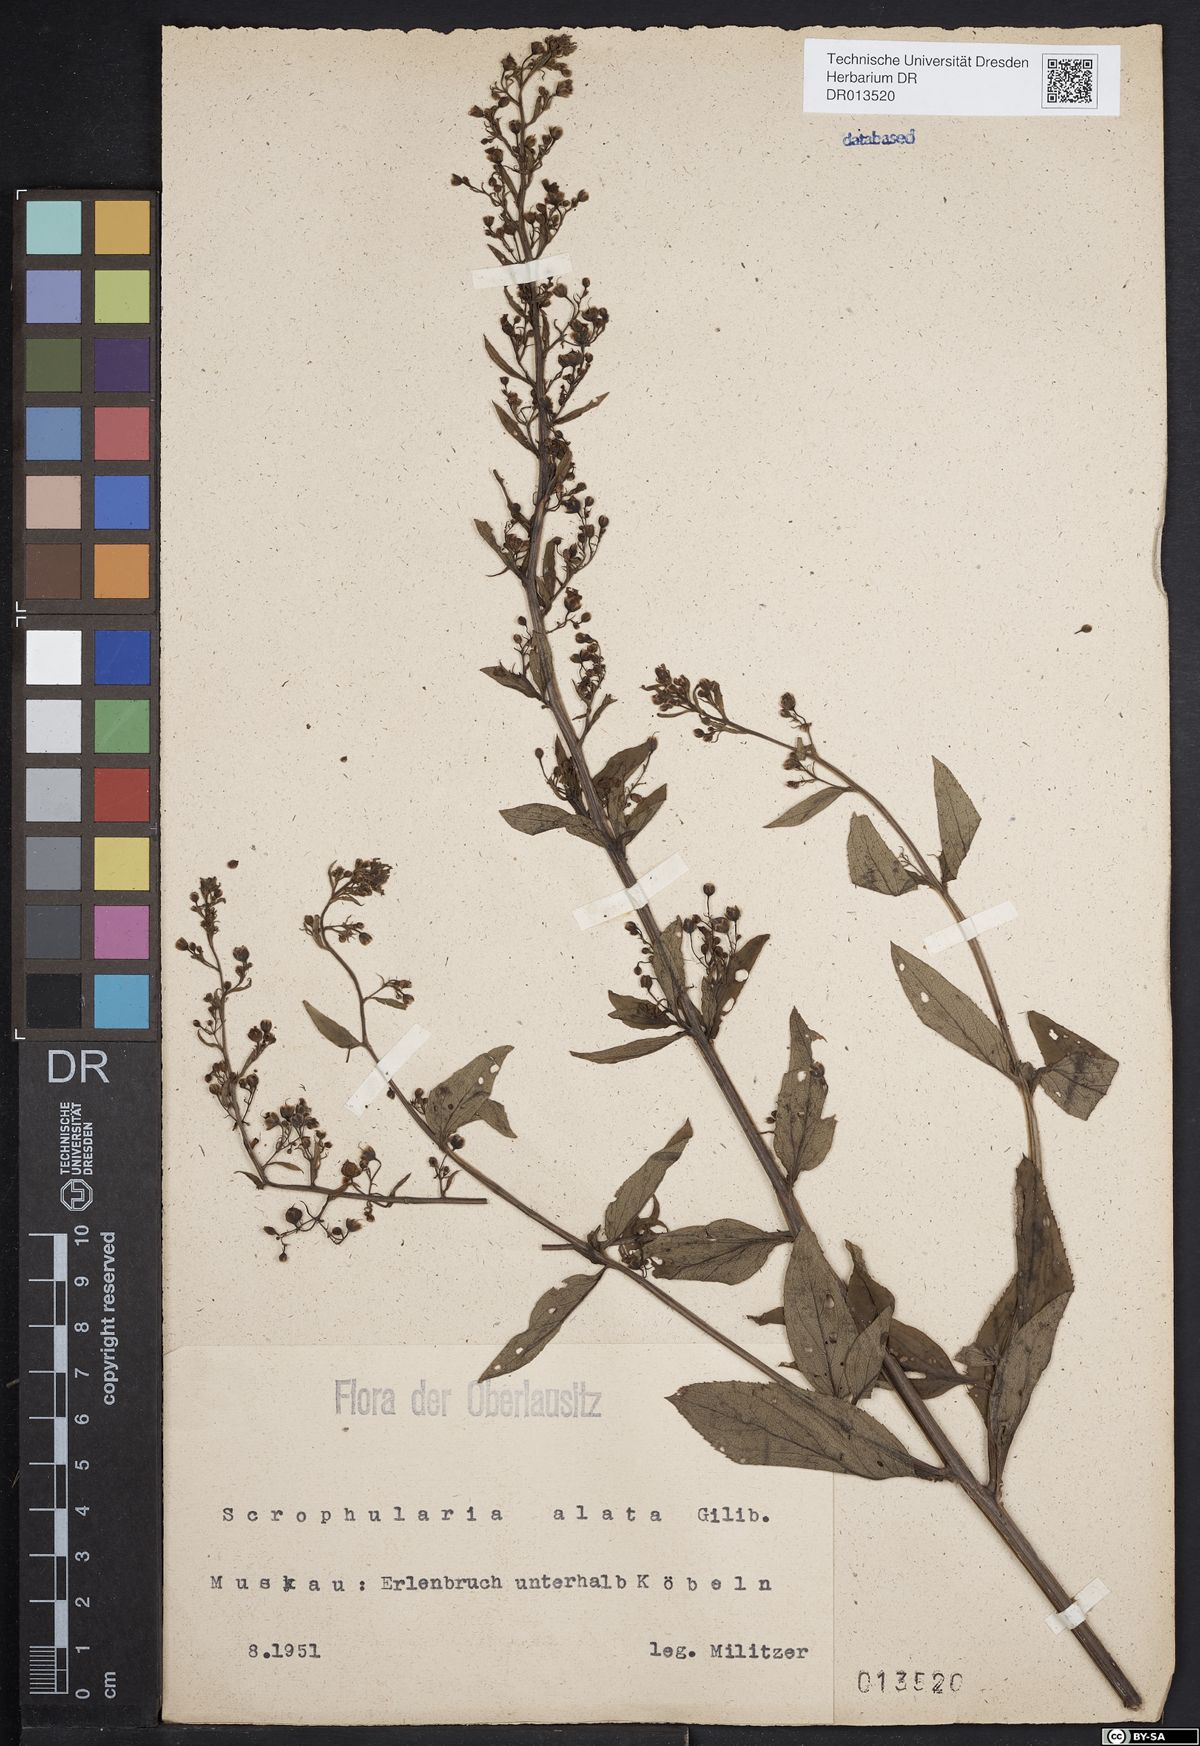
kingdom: Plantae
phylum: Tracheophyta
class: Magnoliopsida
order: Lamiales
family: Scrophulariaceae
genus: Scrophularia
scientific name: Scrophularia umbrosa
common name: Green figwort
